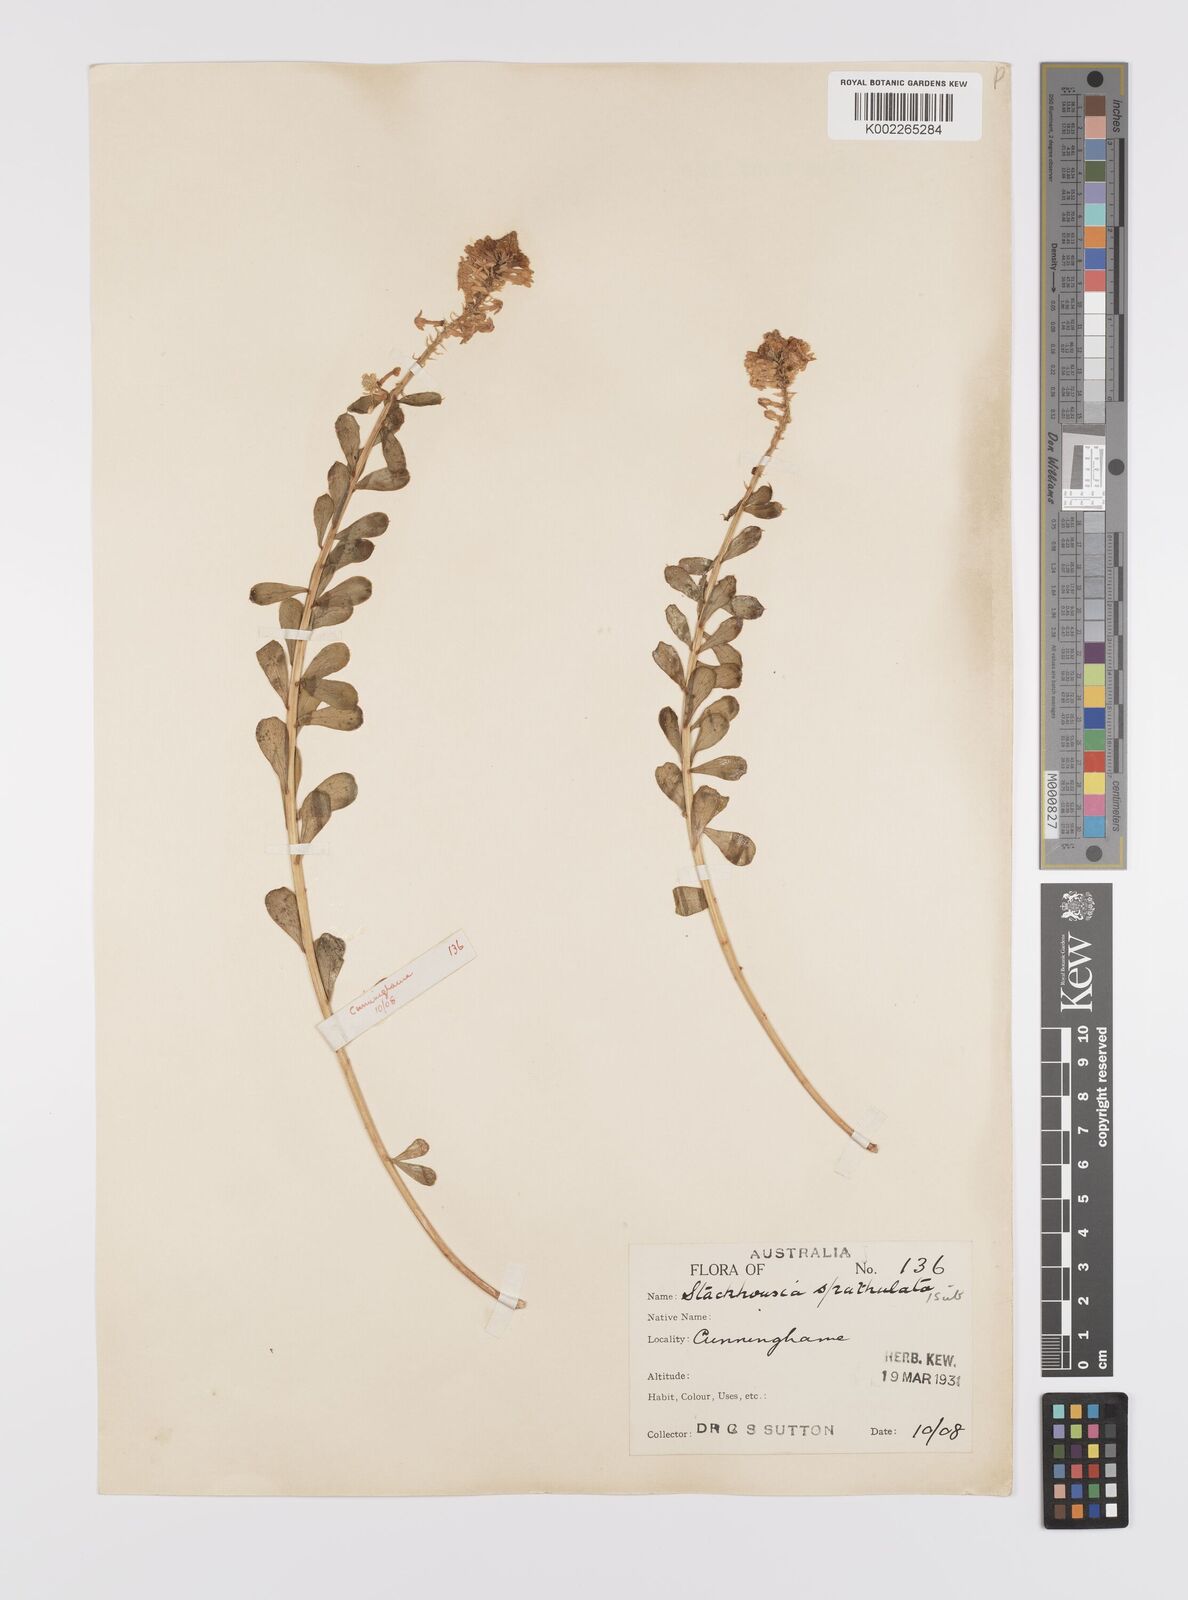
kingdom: Plantae
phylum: Tracheophyta
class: Magnoliopsida
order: Celastrales
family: Celastraceae
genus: Stackhousia
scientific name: Stackhousia spathulata
